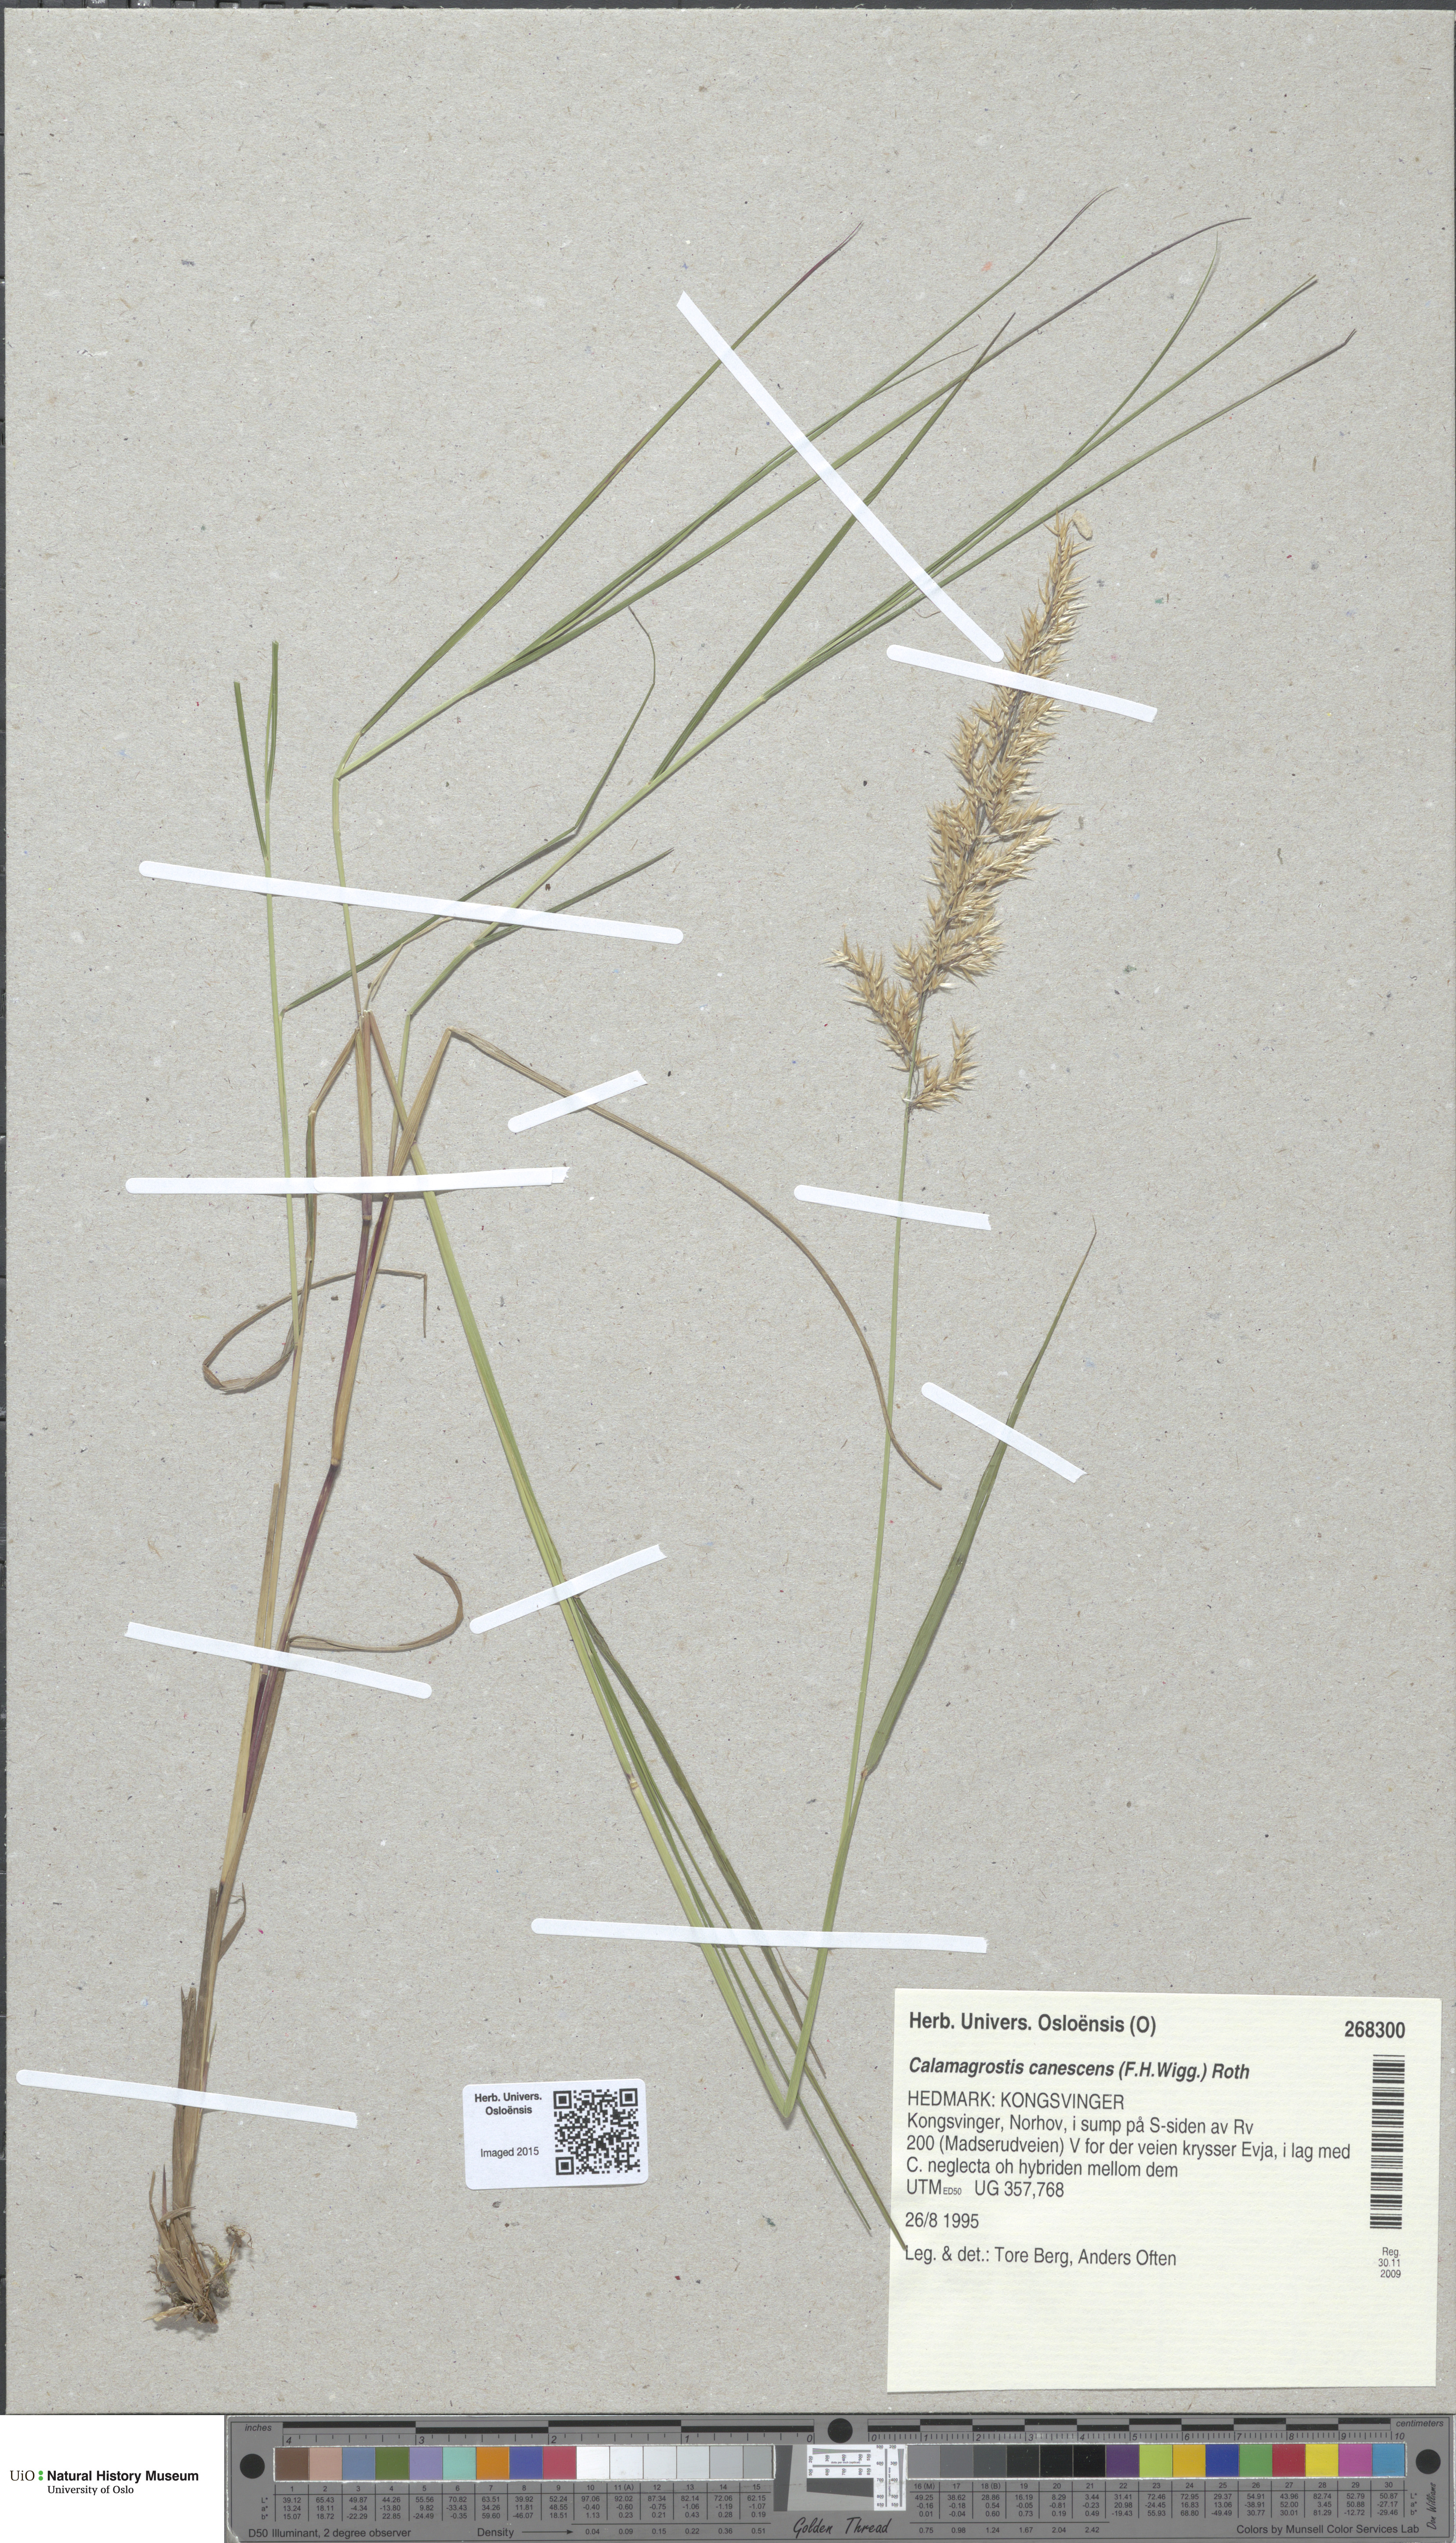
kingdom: Plantae
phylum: Tracheophyta
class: Liliopsida
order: Poales
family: Poaceae
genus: Calamagrostis
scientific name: Calamagrostis canescens
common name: Purple small-reed
